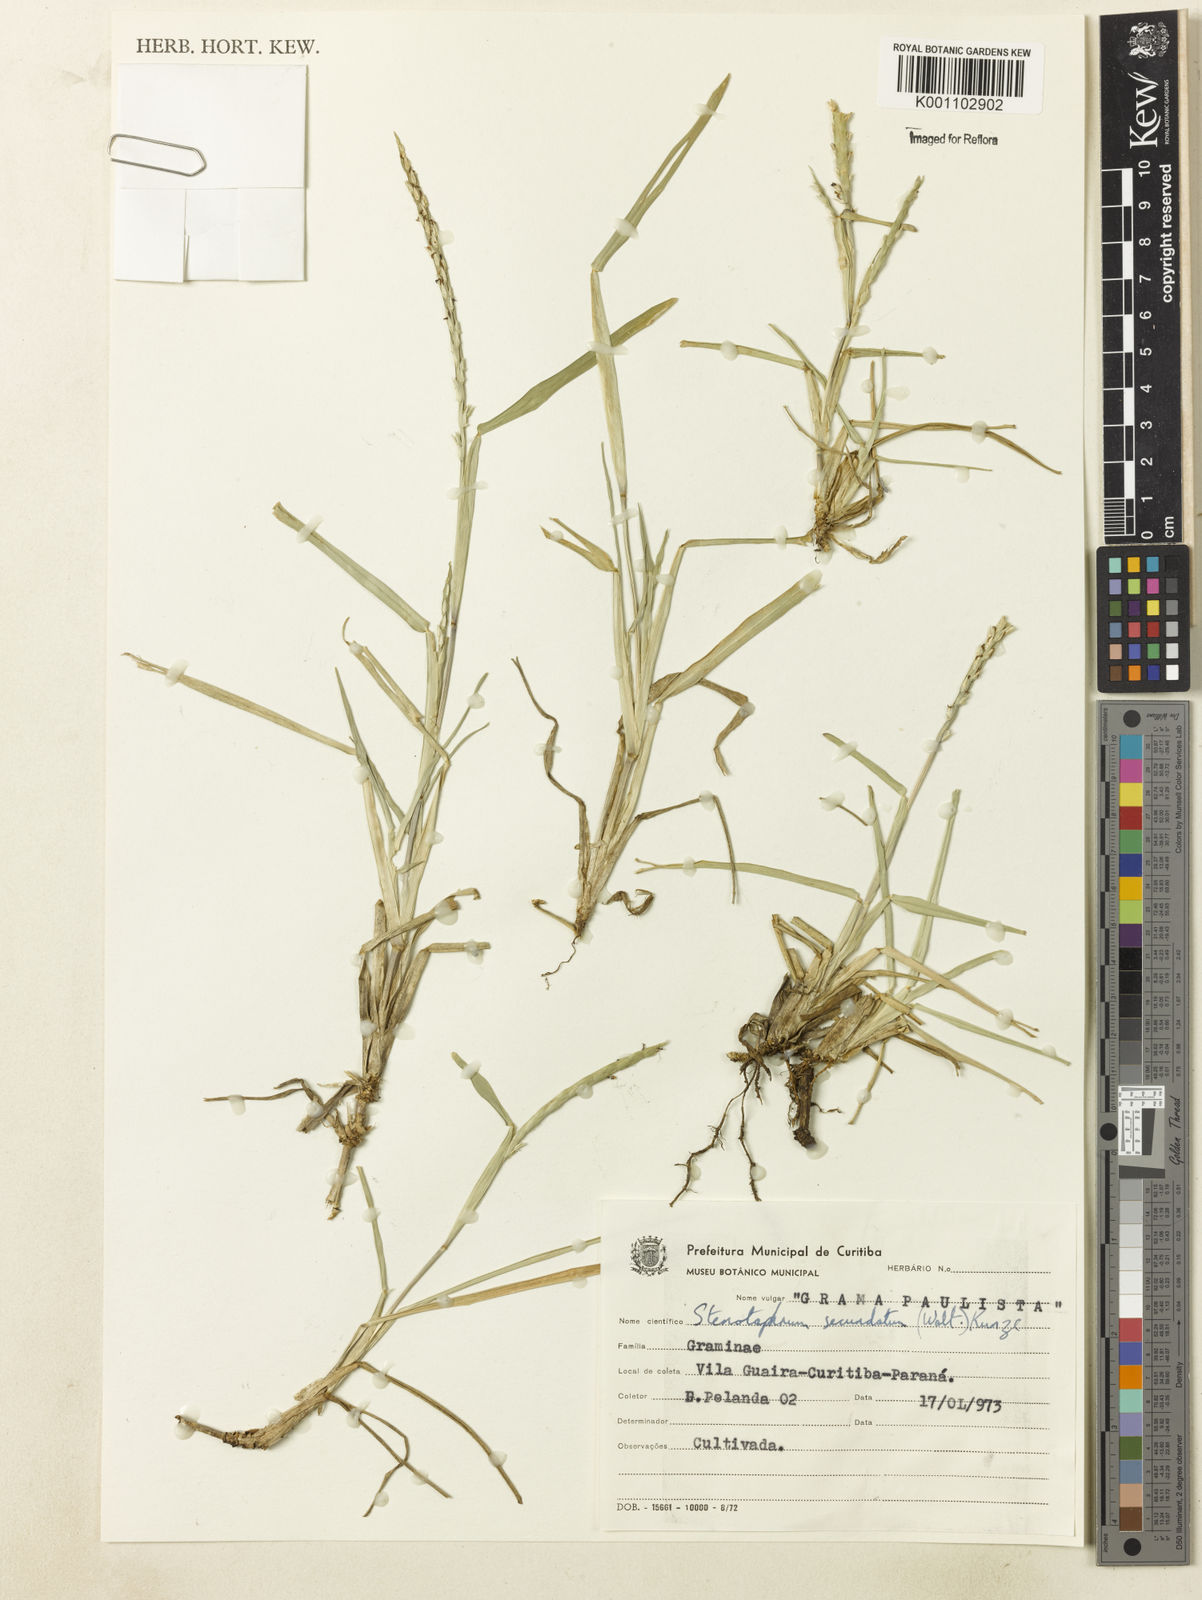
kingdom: Plantae
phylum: Tracheophyta
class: Liliopsida
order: Poales
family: Poaceae
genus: Stenotaphrum
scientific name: Stenotaphrum secundatum
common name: St. augustine grass
